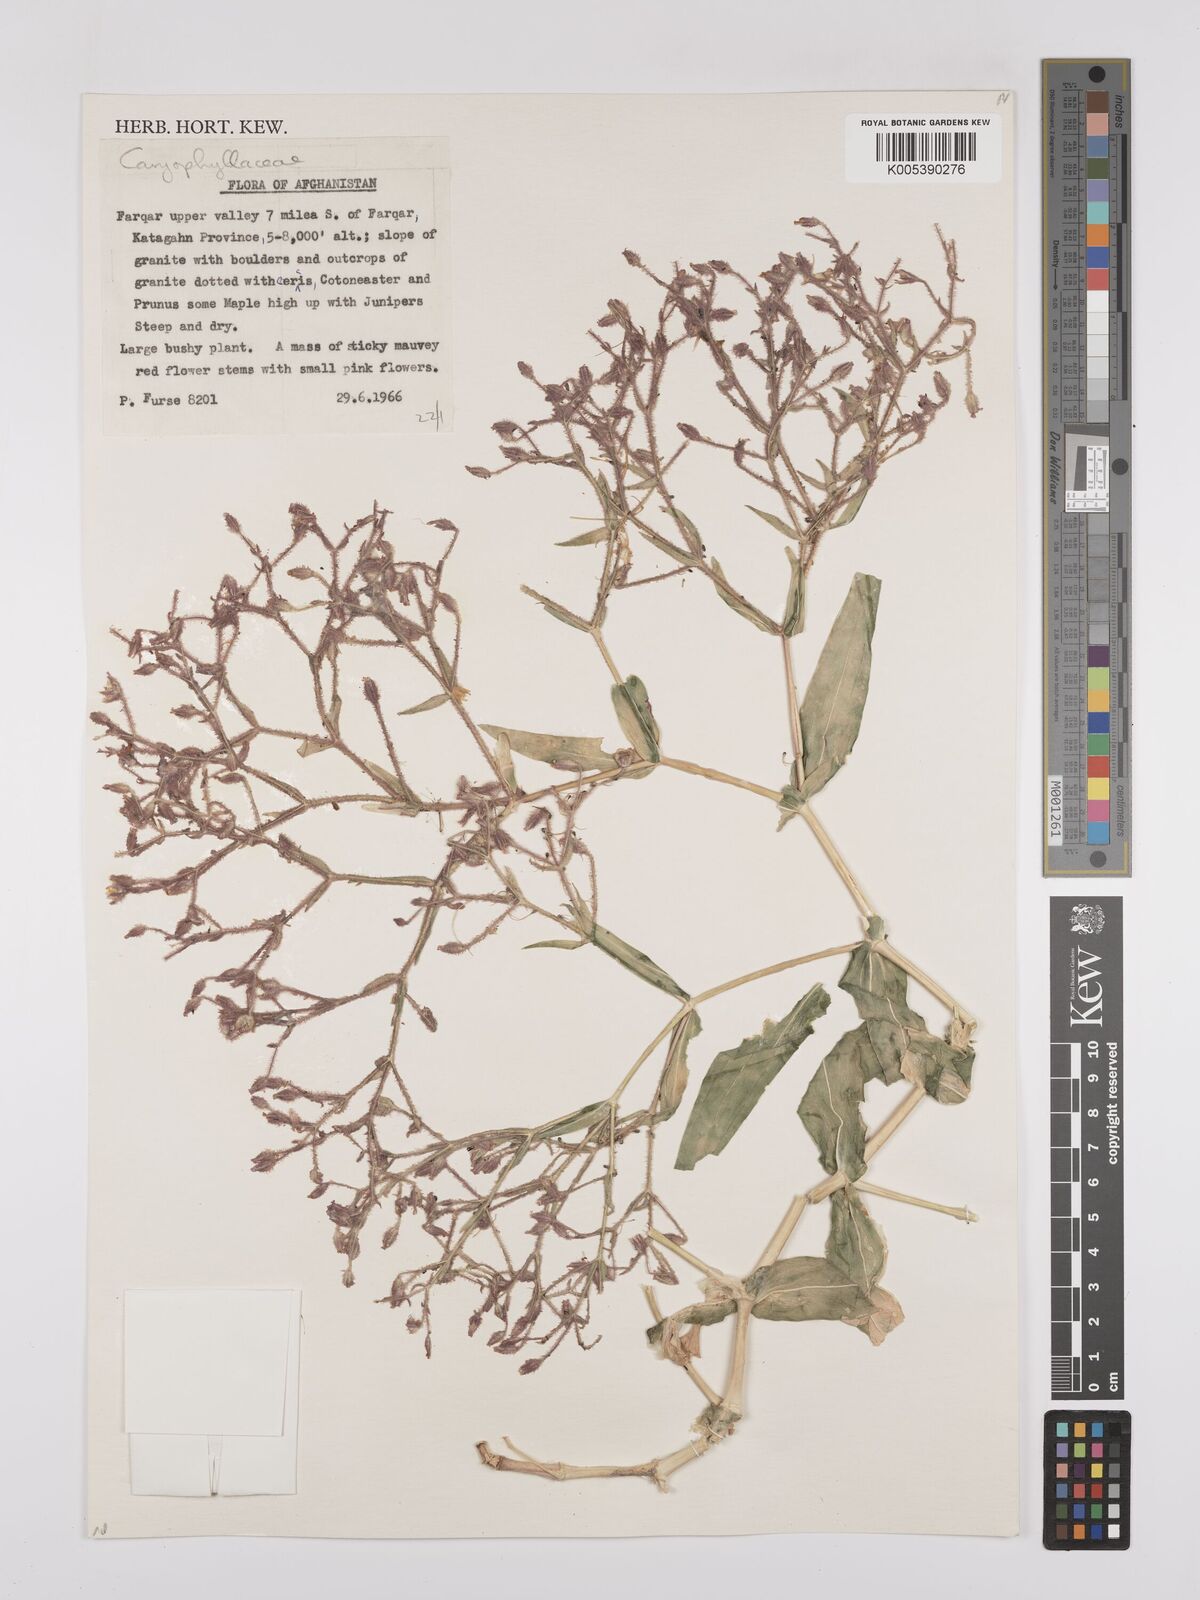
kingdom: Plantae
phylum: Tracheophyta
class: Magnoliopsida
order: Caryophyllales
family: Caryophyllaceae
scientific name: Caryophyllaceae
